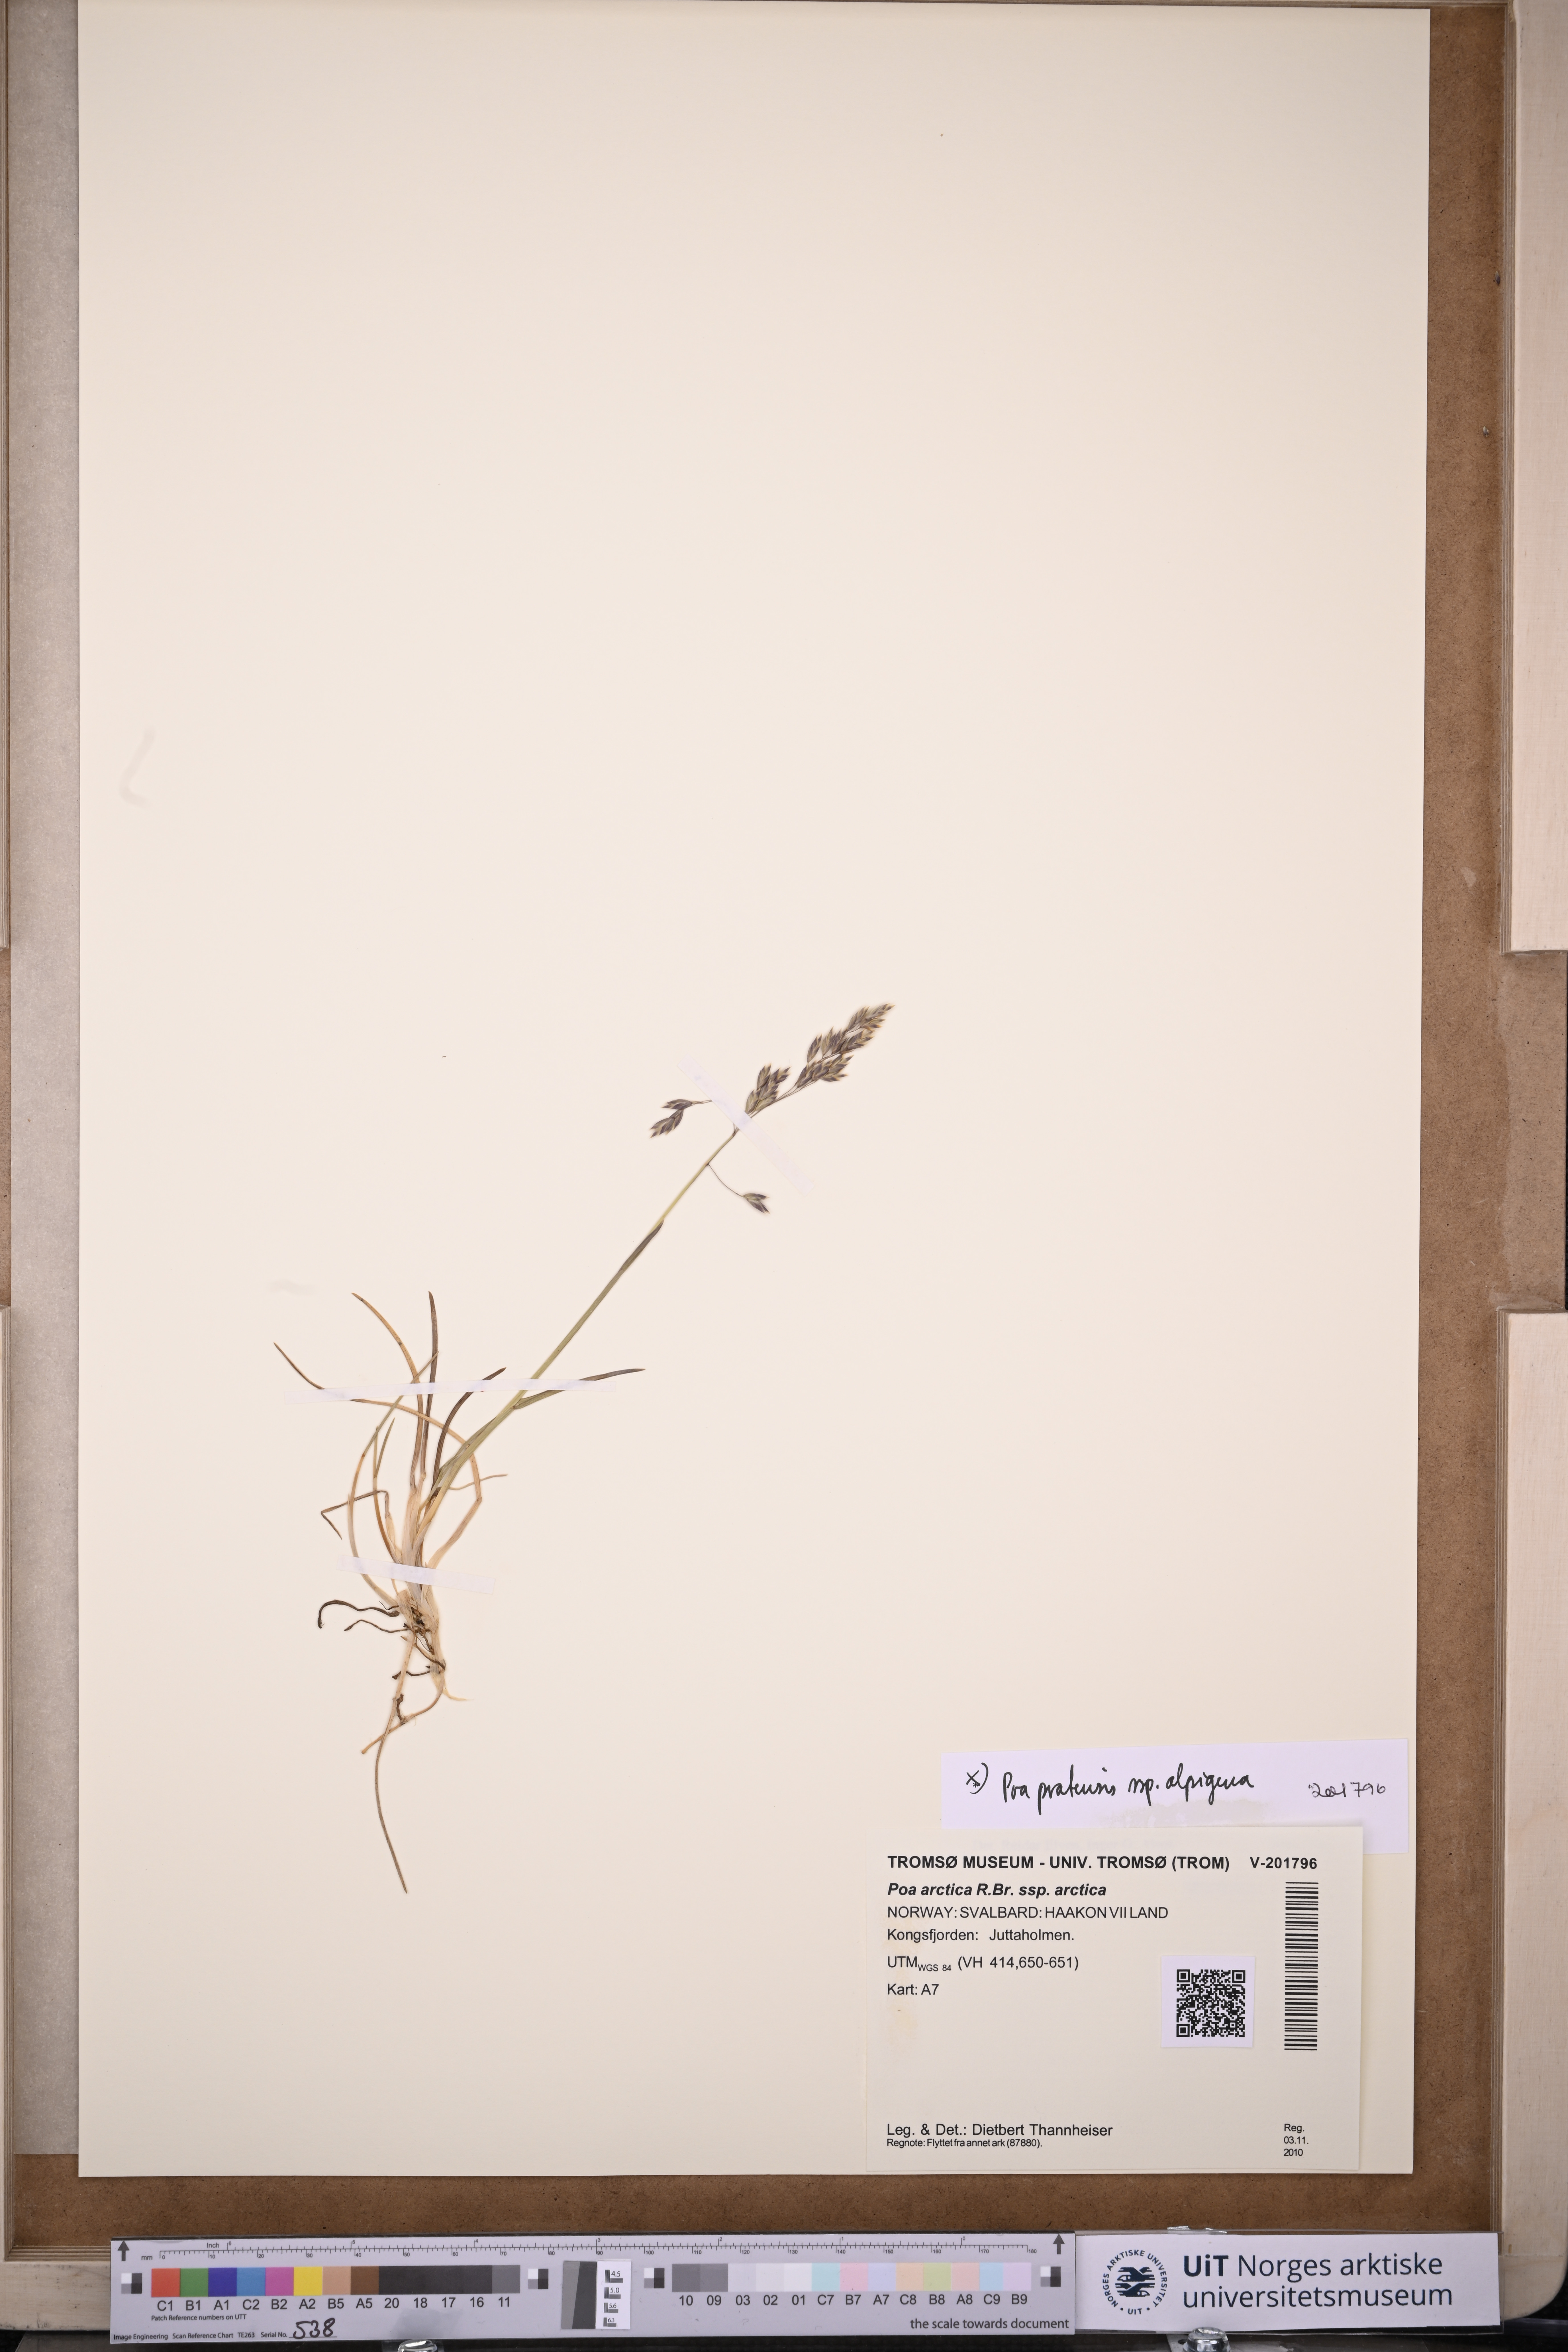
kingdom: Plantae
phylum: Tracheophyta
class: Liliopsida
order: Poales
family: Poaceae
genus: Poa
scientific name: Poa tolmatchewii
